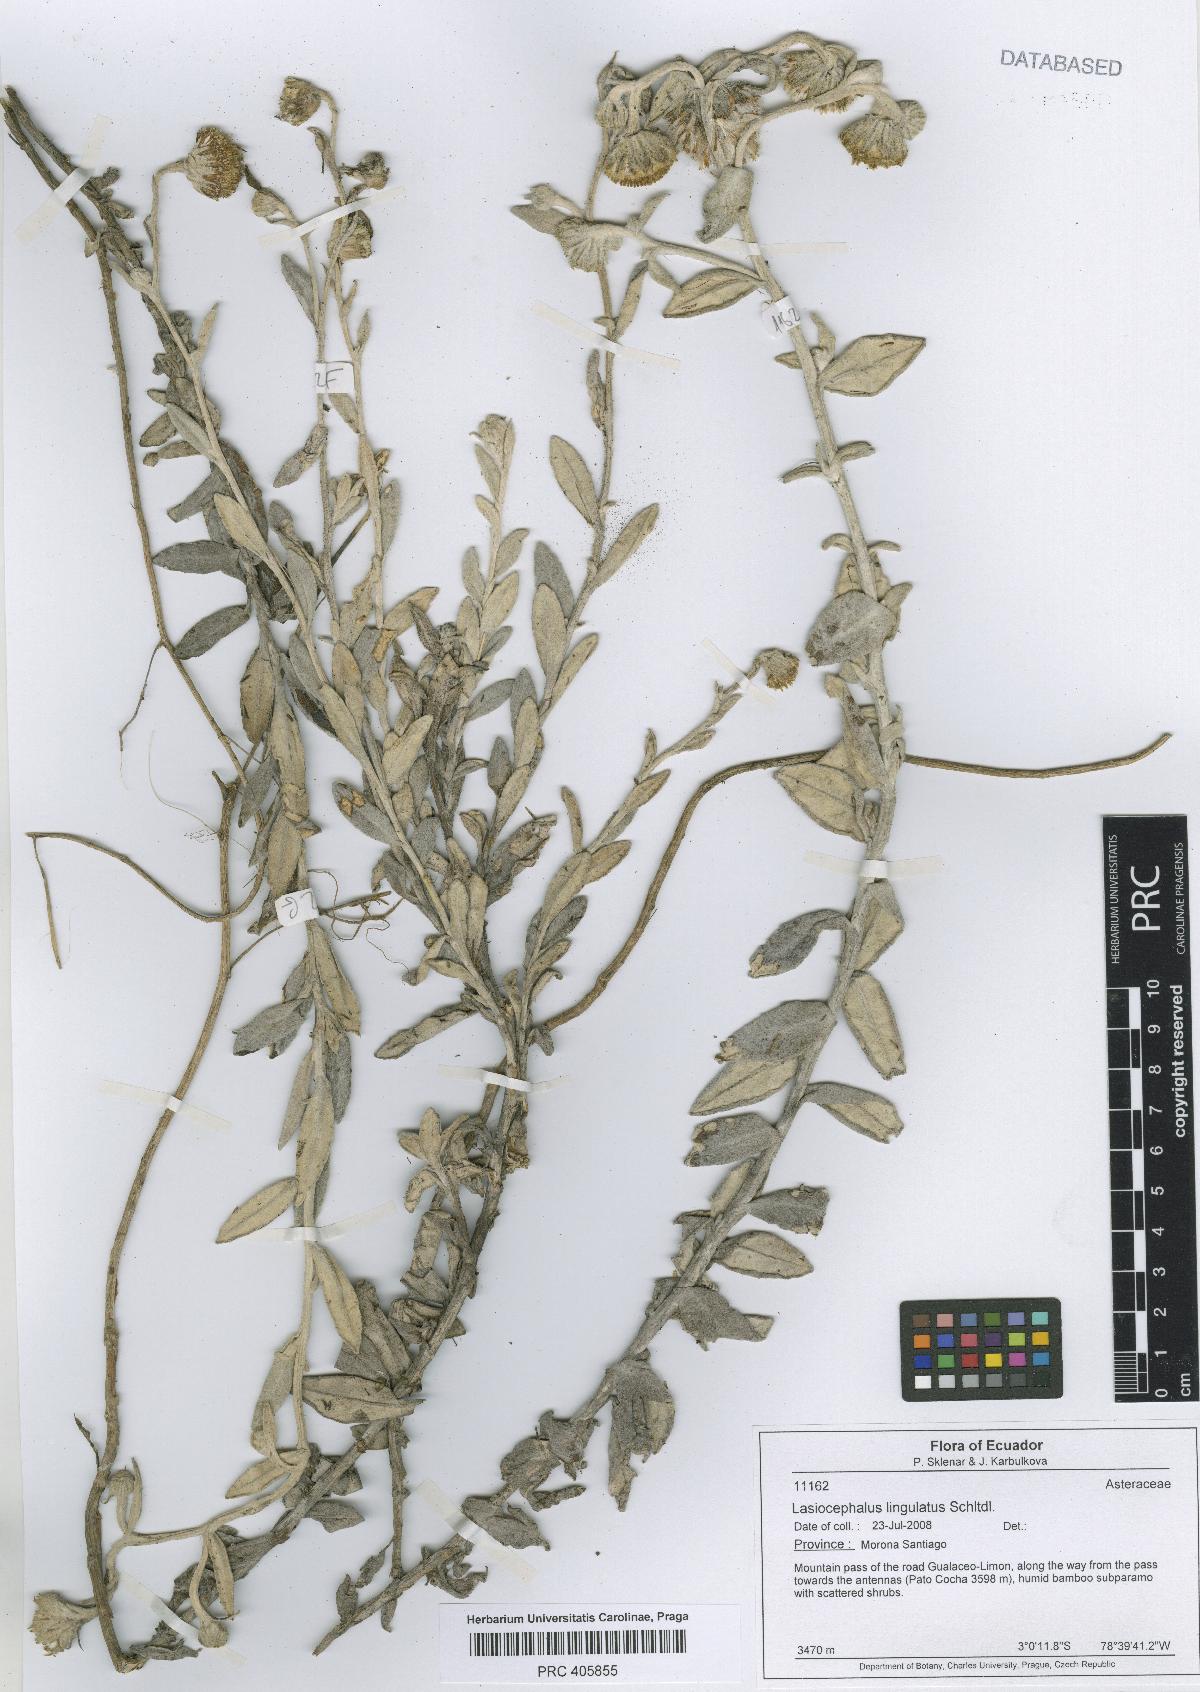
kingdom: Plantae
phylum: Tracheophyta
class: Magnoliopsida
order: Asterales
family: Asteraceae
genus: Lasiocephalus
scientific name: Lasiocephalus lingulatus
